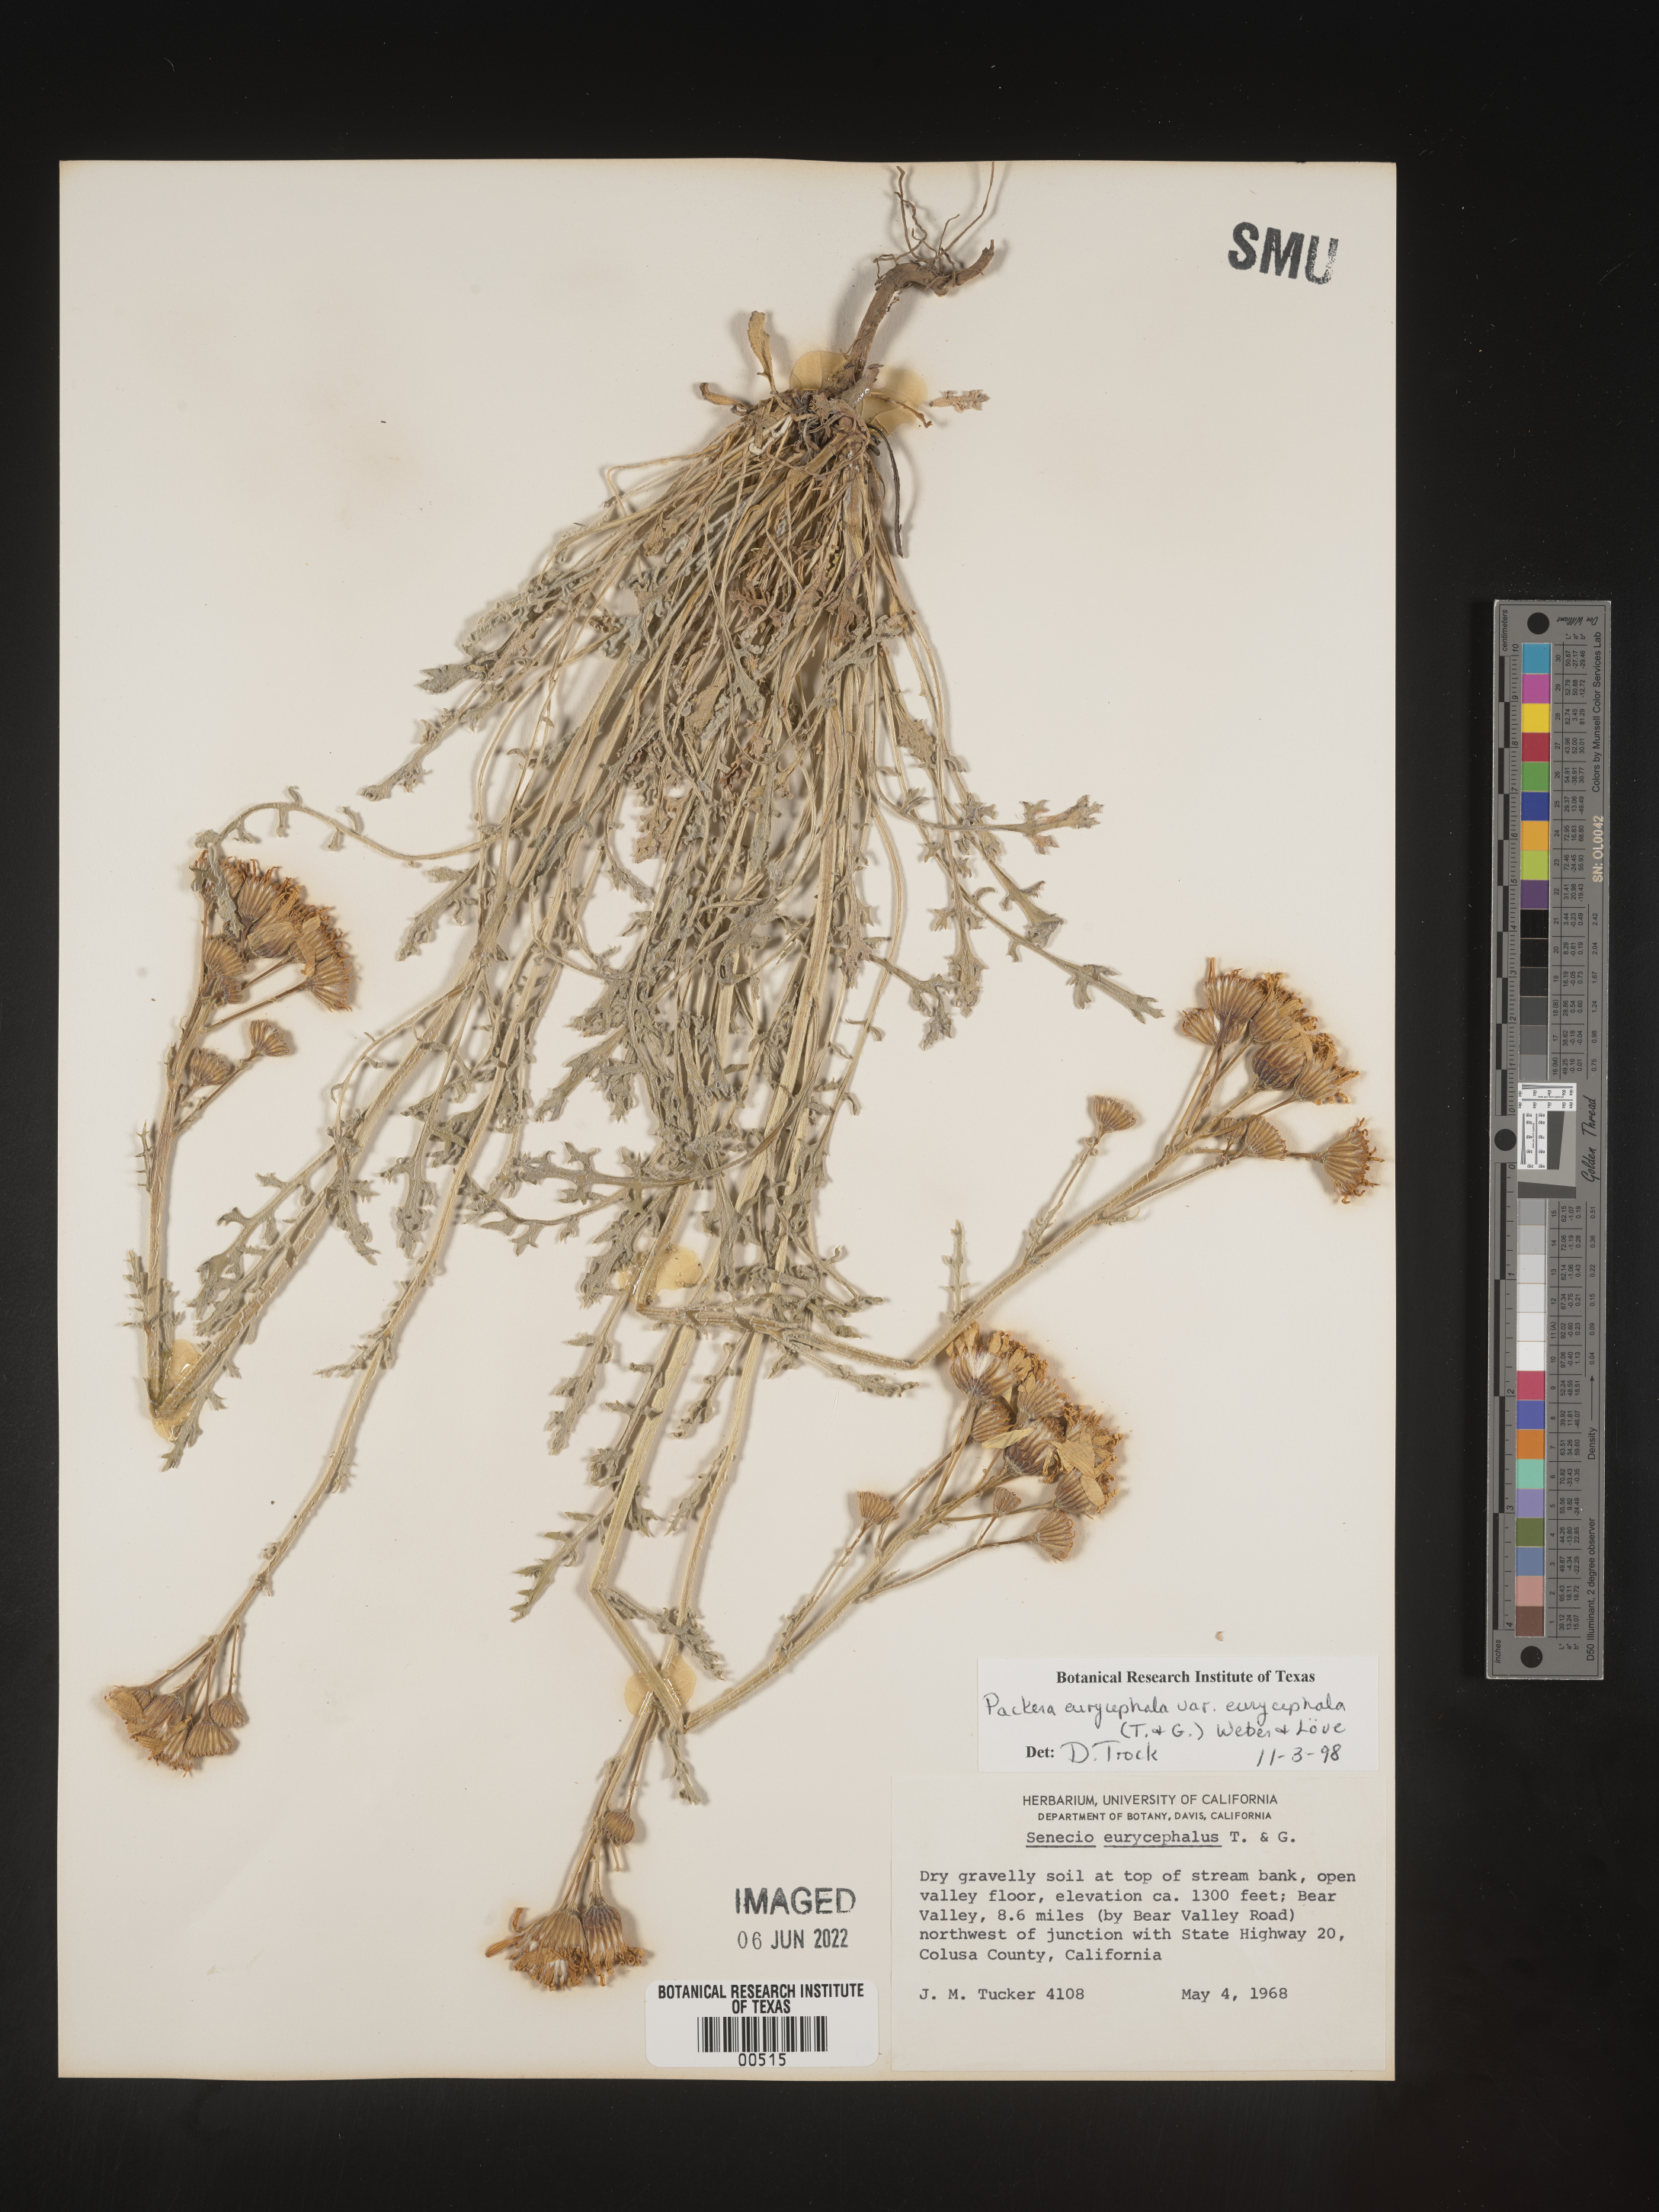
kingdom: Plantae
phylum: Tracheophyta
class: Magnoliopsida
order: Asterales
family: Asteraceae
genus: Packera
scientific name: Packera eurycephala
